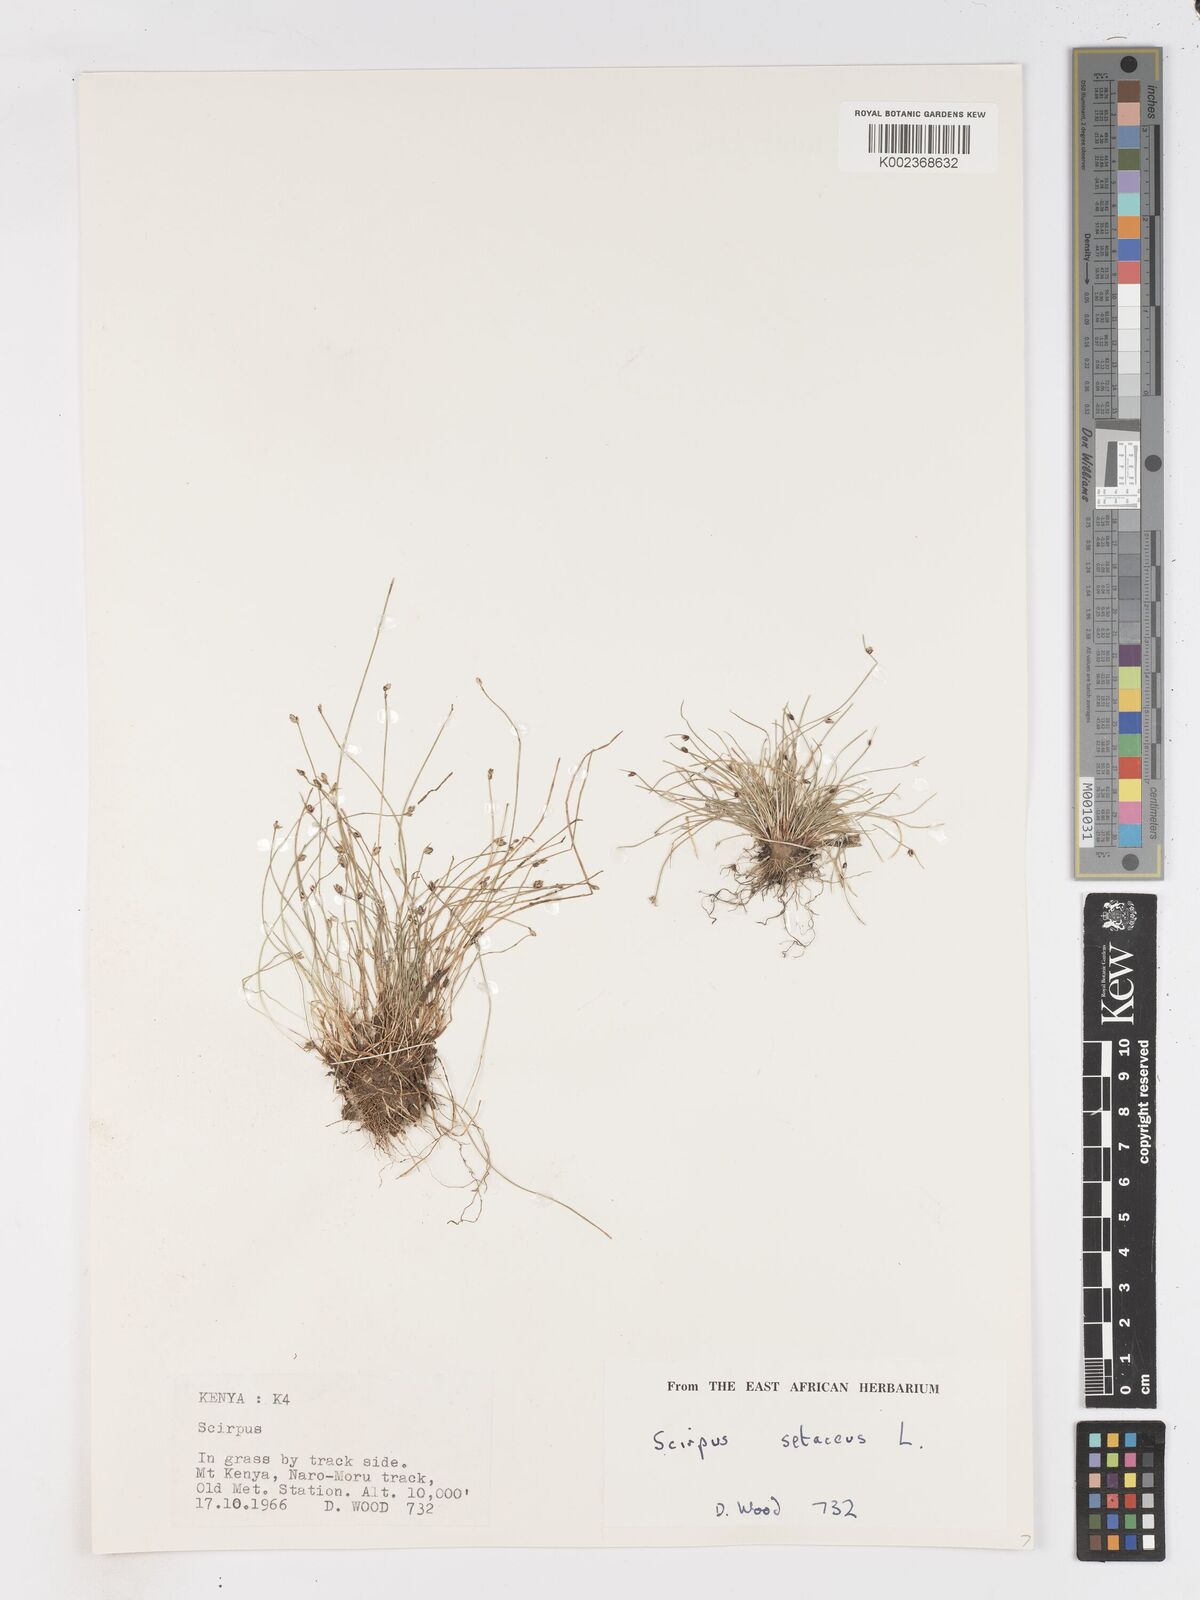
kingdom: Plantae
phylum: Tracheophyta
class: Liliopsida
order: Poales
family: Cyperaceae
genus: Isolepis
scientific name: Isolepis setacea
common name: Bristle club-rush
